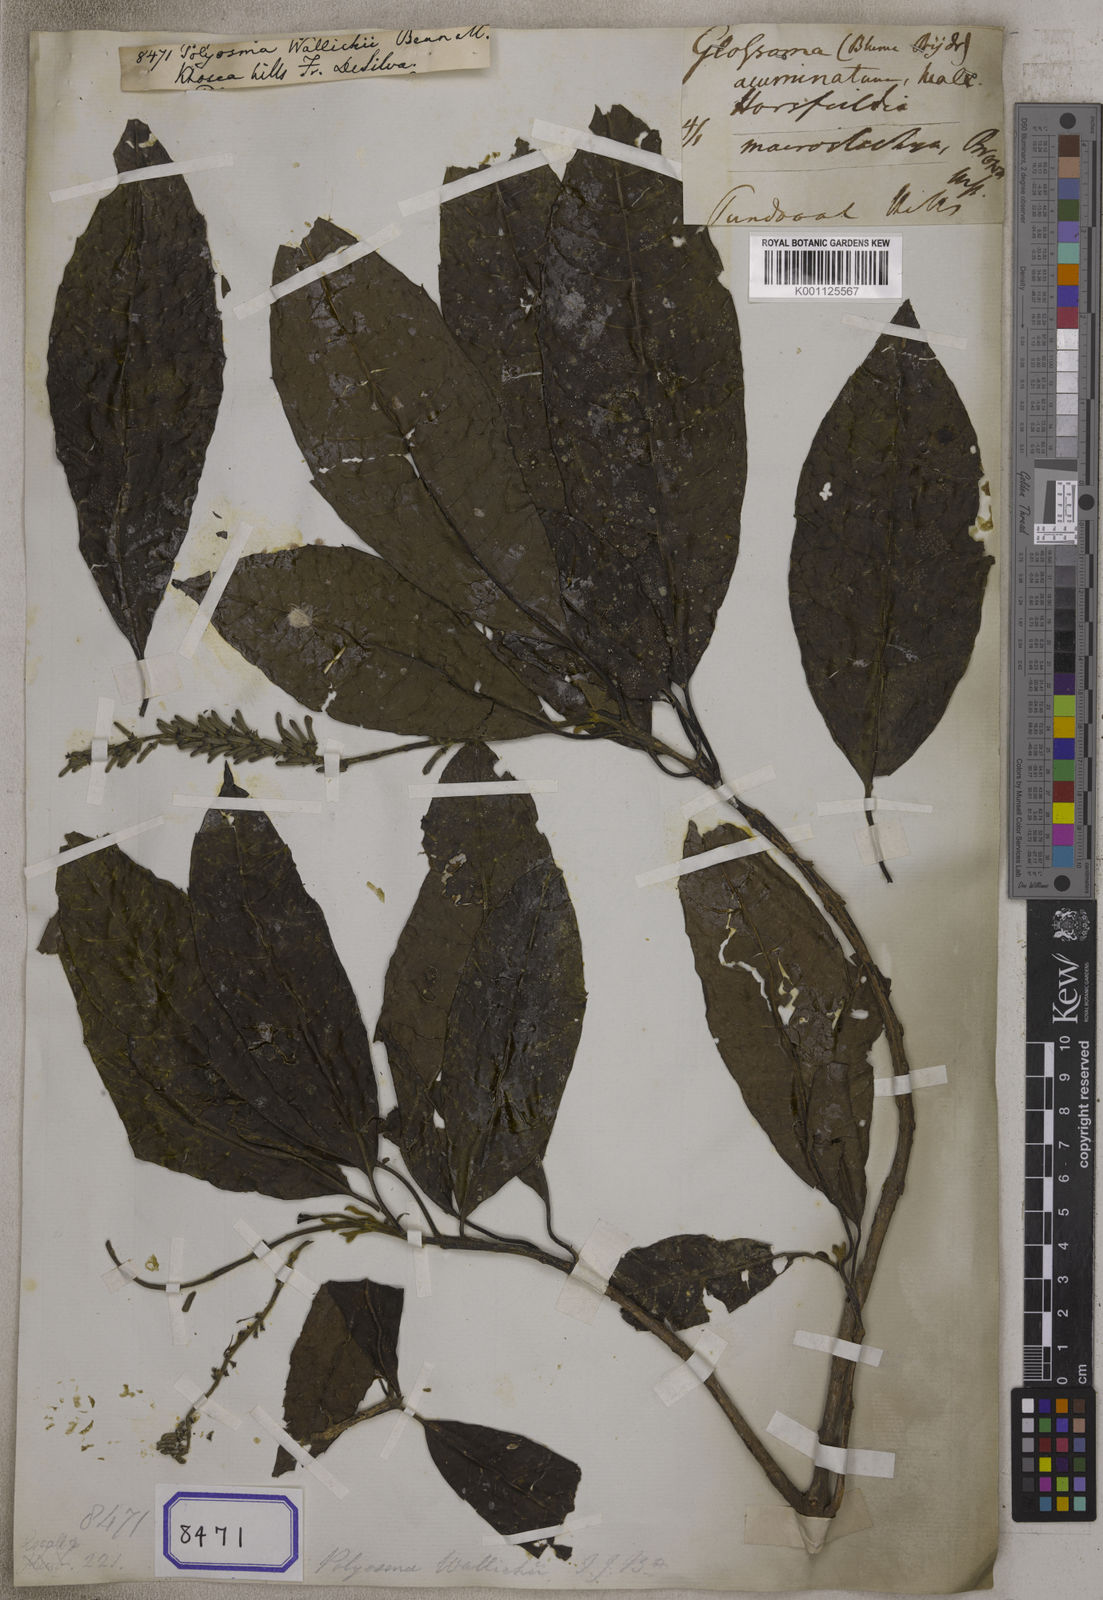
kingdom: Plantae
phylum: Tracheophyta
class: Magnoliopsida
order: Escalloniales
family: Escalloniaceae
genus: Polyosma
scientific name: Polyosma wallichii
